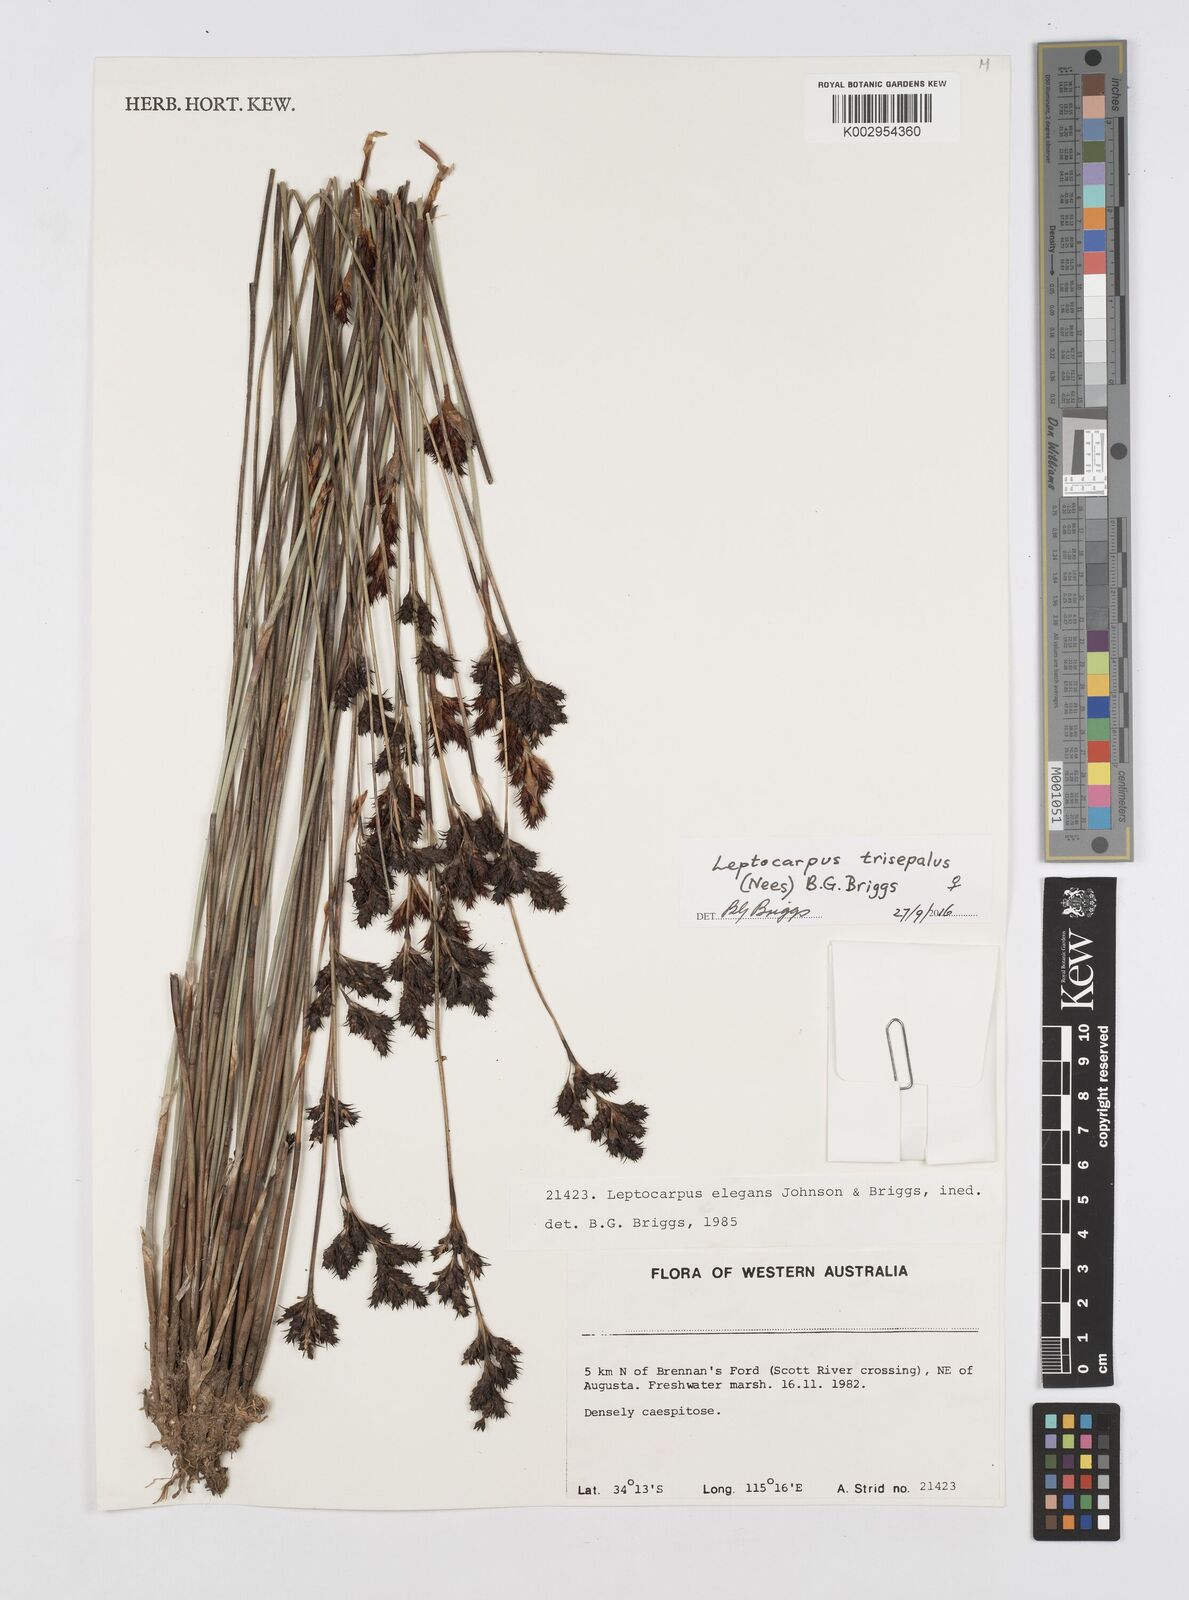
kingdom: Plantae
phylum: Tracheophyta
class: Liliopsida
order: Poales
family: Restionaceae
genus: Leptocarpus
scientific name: Leptocarpus trisepalus
